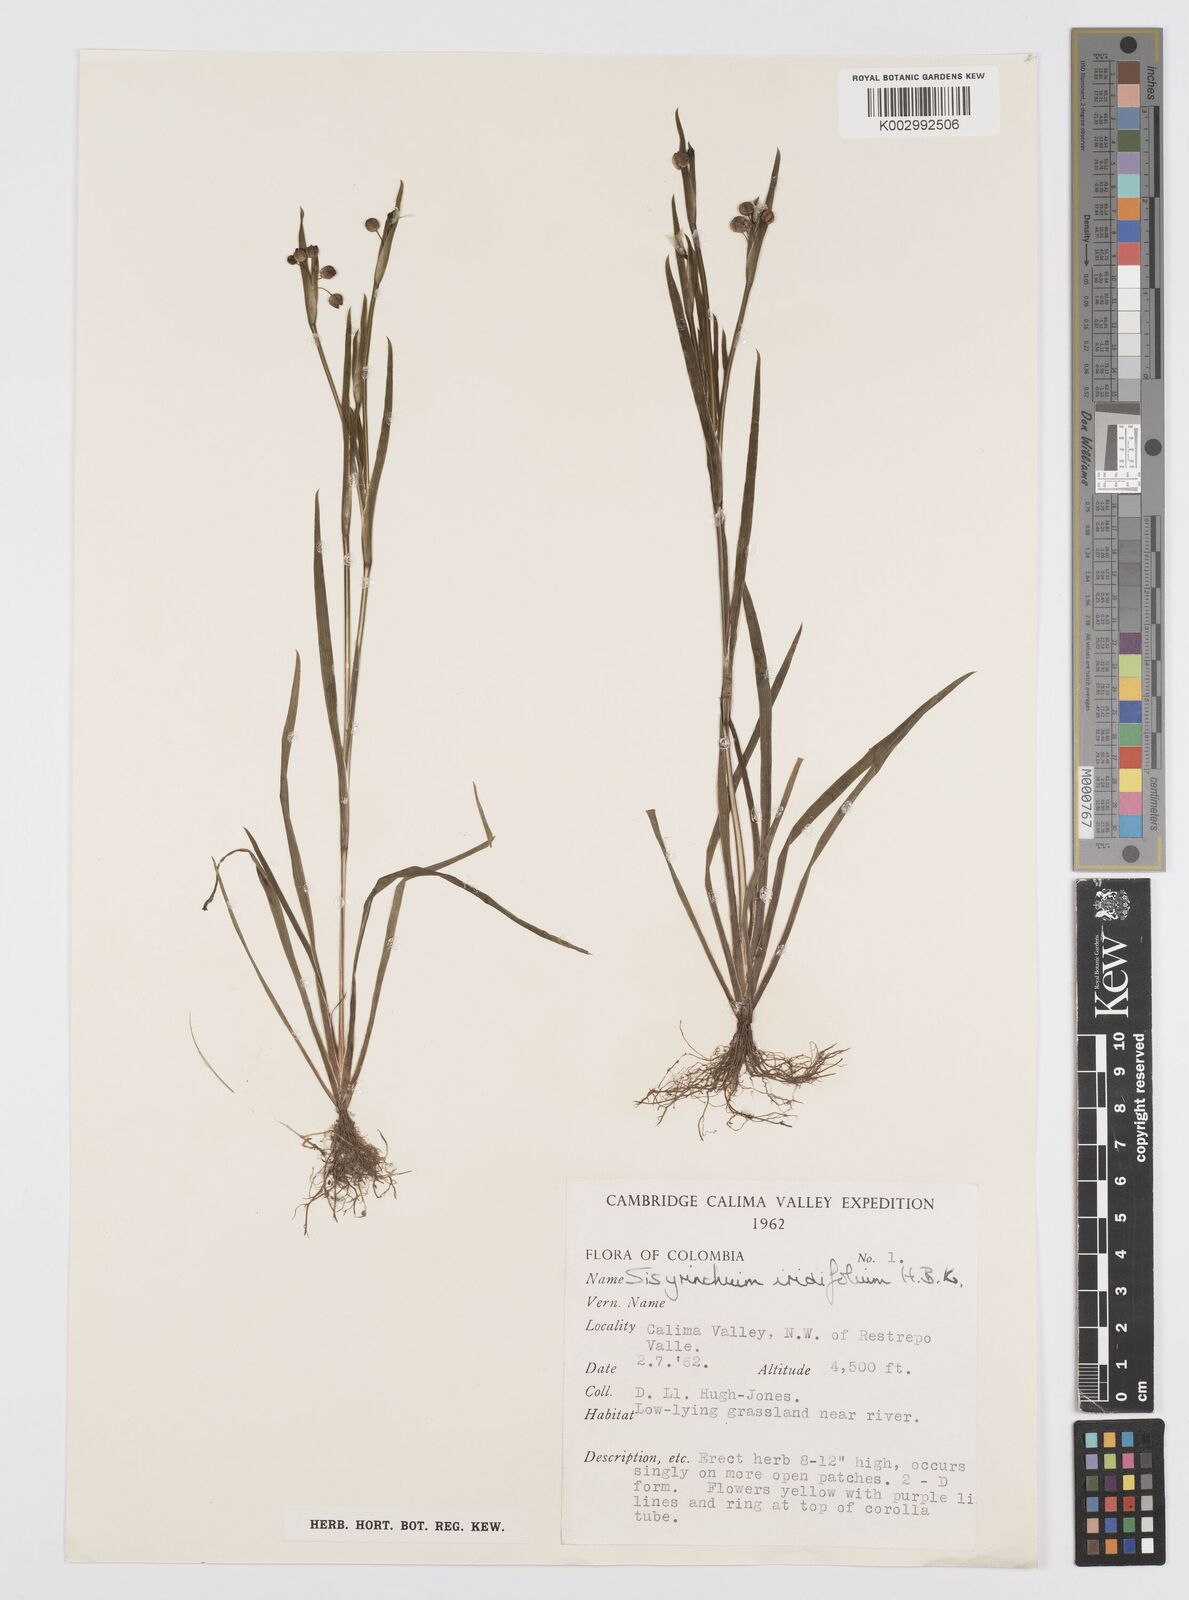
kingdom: Plantae
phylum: Tracheophyta
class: Liliopsida
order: Asparagales
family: Iridaceae
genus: Sisyrinchium
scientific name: Sisyrinchium micranthum
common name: Bermuda pigroot
